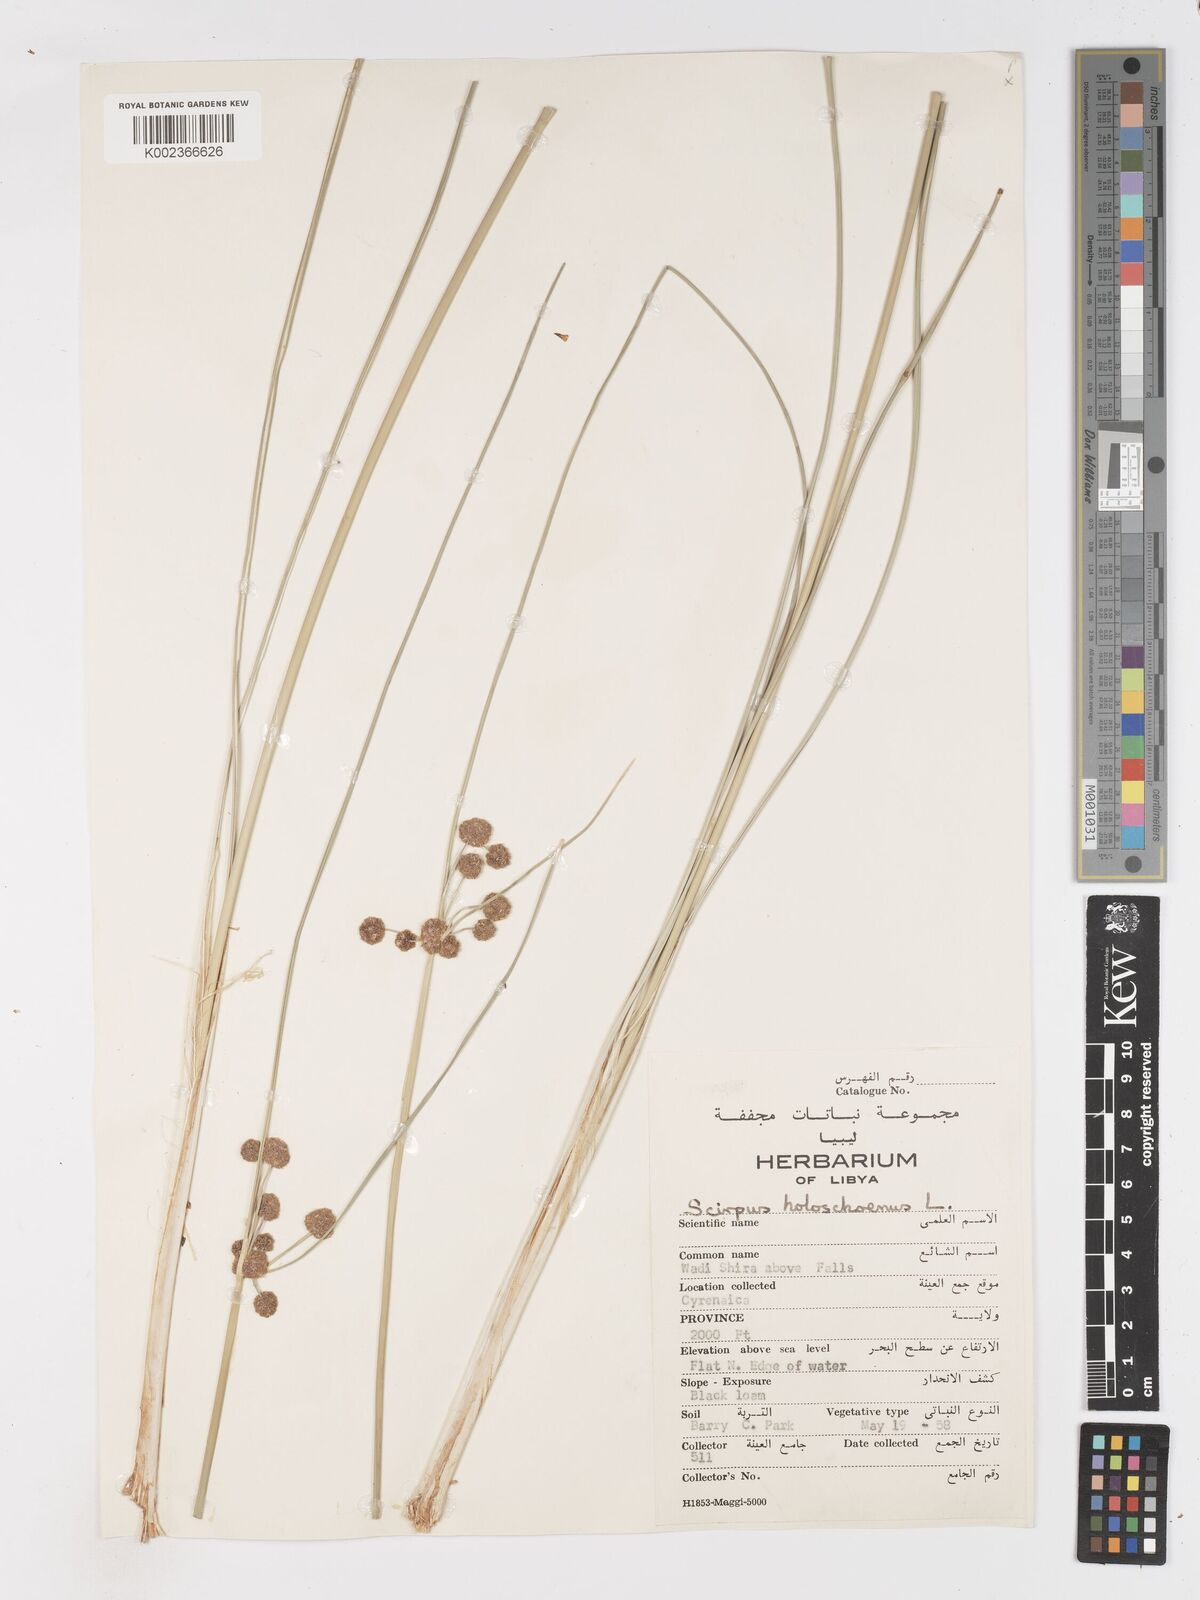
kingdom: Plantae
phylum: Tracheophyta
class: Liliopsida
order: Poales
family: Cyperaceae
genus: Scirpoides
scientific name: Scirpoides holoschoenus
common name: Round-headed club-rush
